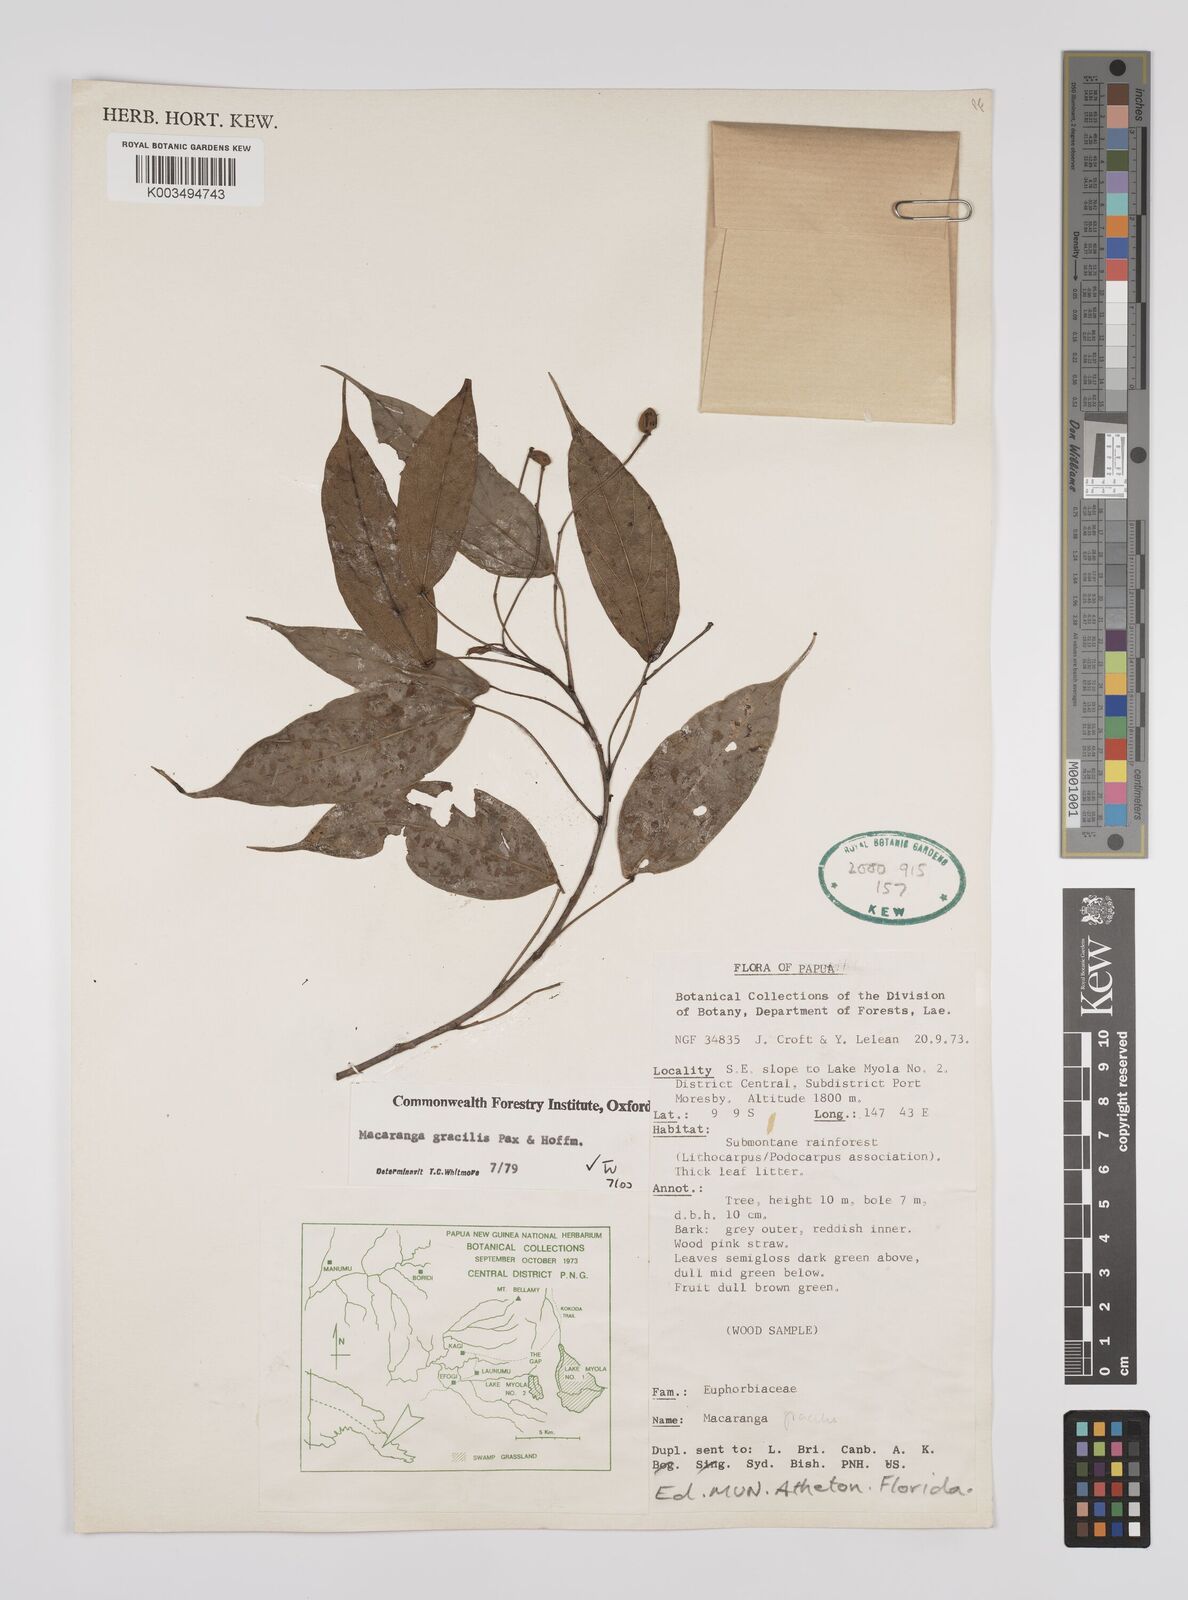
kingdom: Plantae
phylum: Tracheophyta
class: Magnoliopsida
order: Malpighiales
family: Euphorbiaceae
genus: Macaranga
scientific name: Macaranga gracilis
